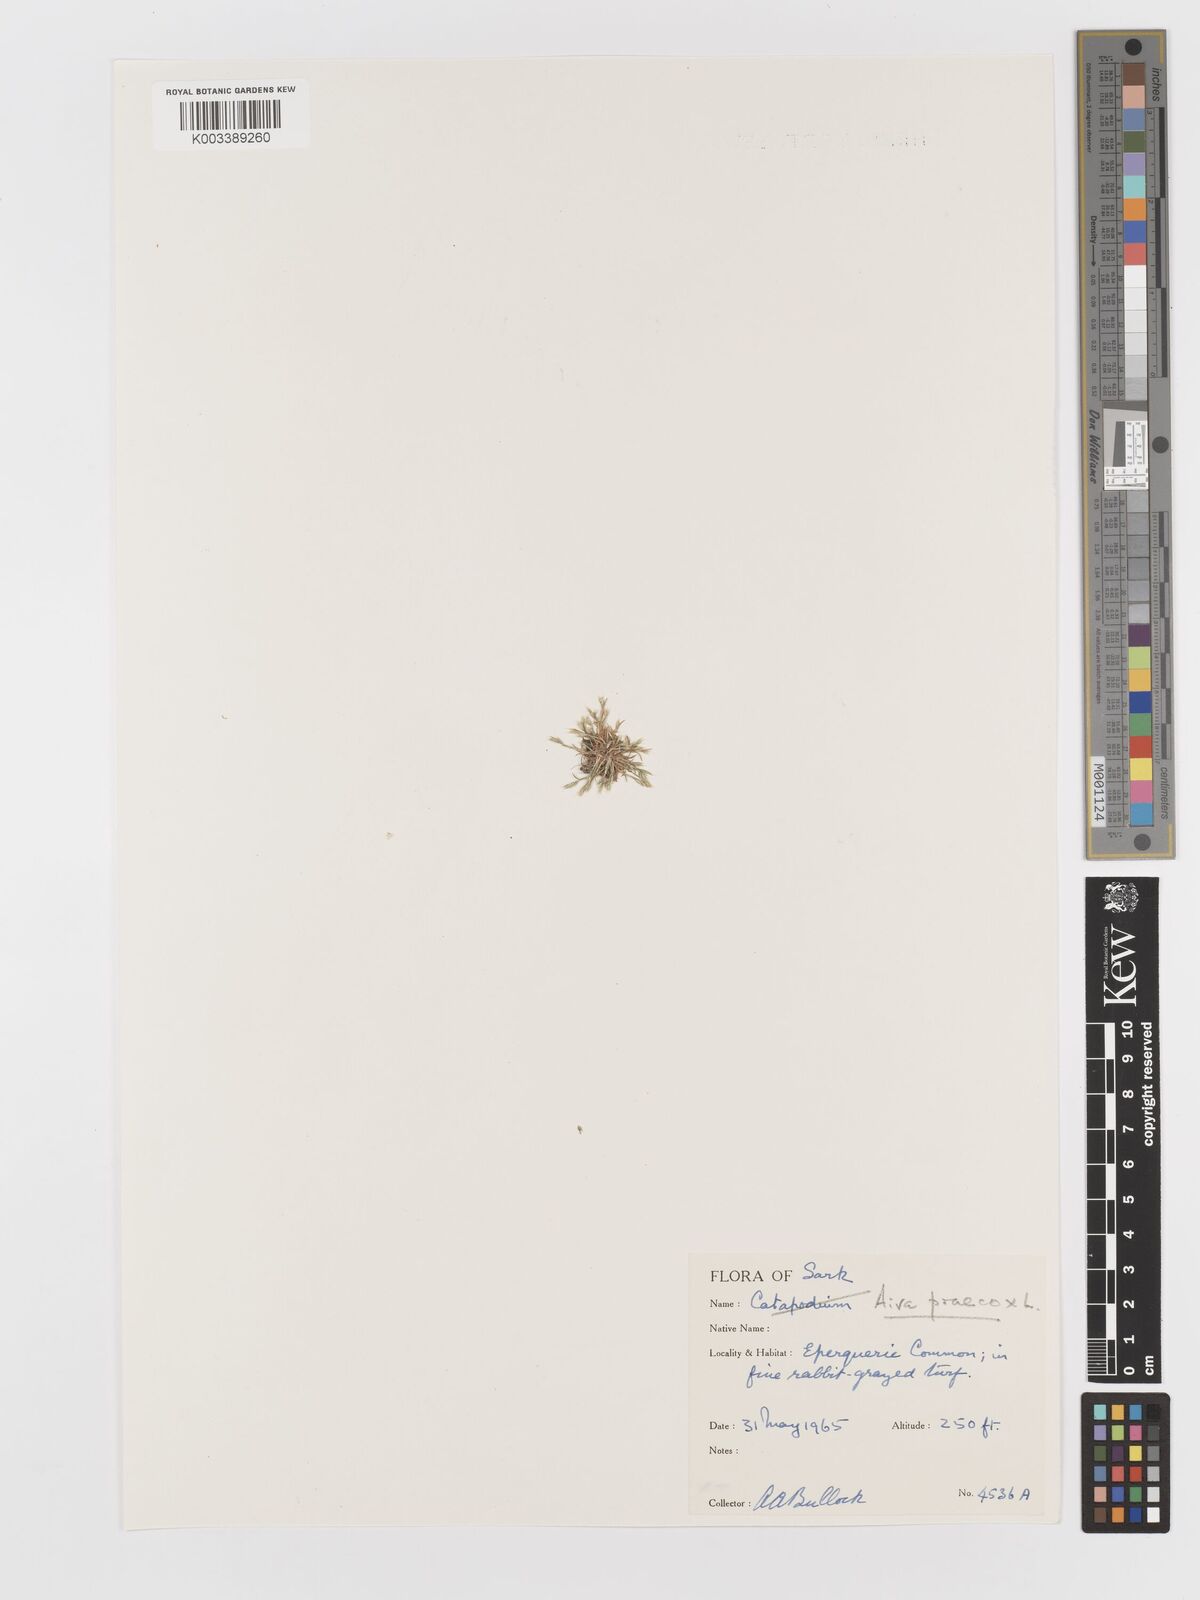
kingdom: Plantae
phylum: Tracheophyta
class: Liliopsida
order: Poales
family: Poaceae
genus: Aira
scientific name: Aira praecox
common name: Early hair-grass
